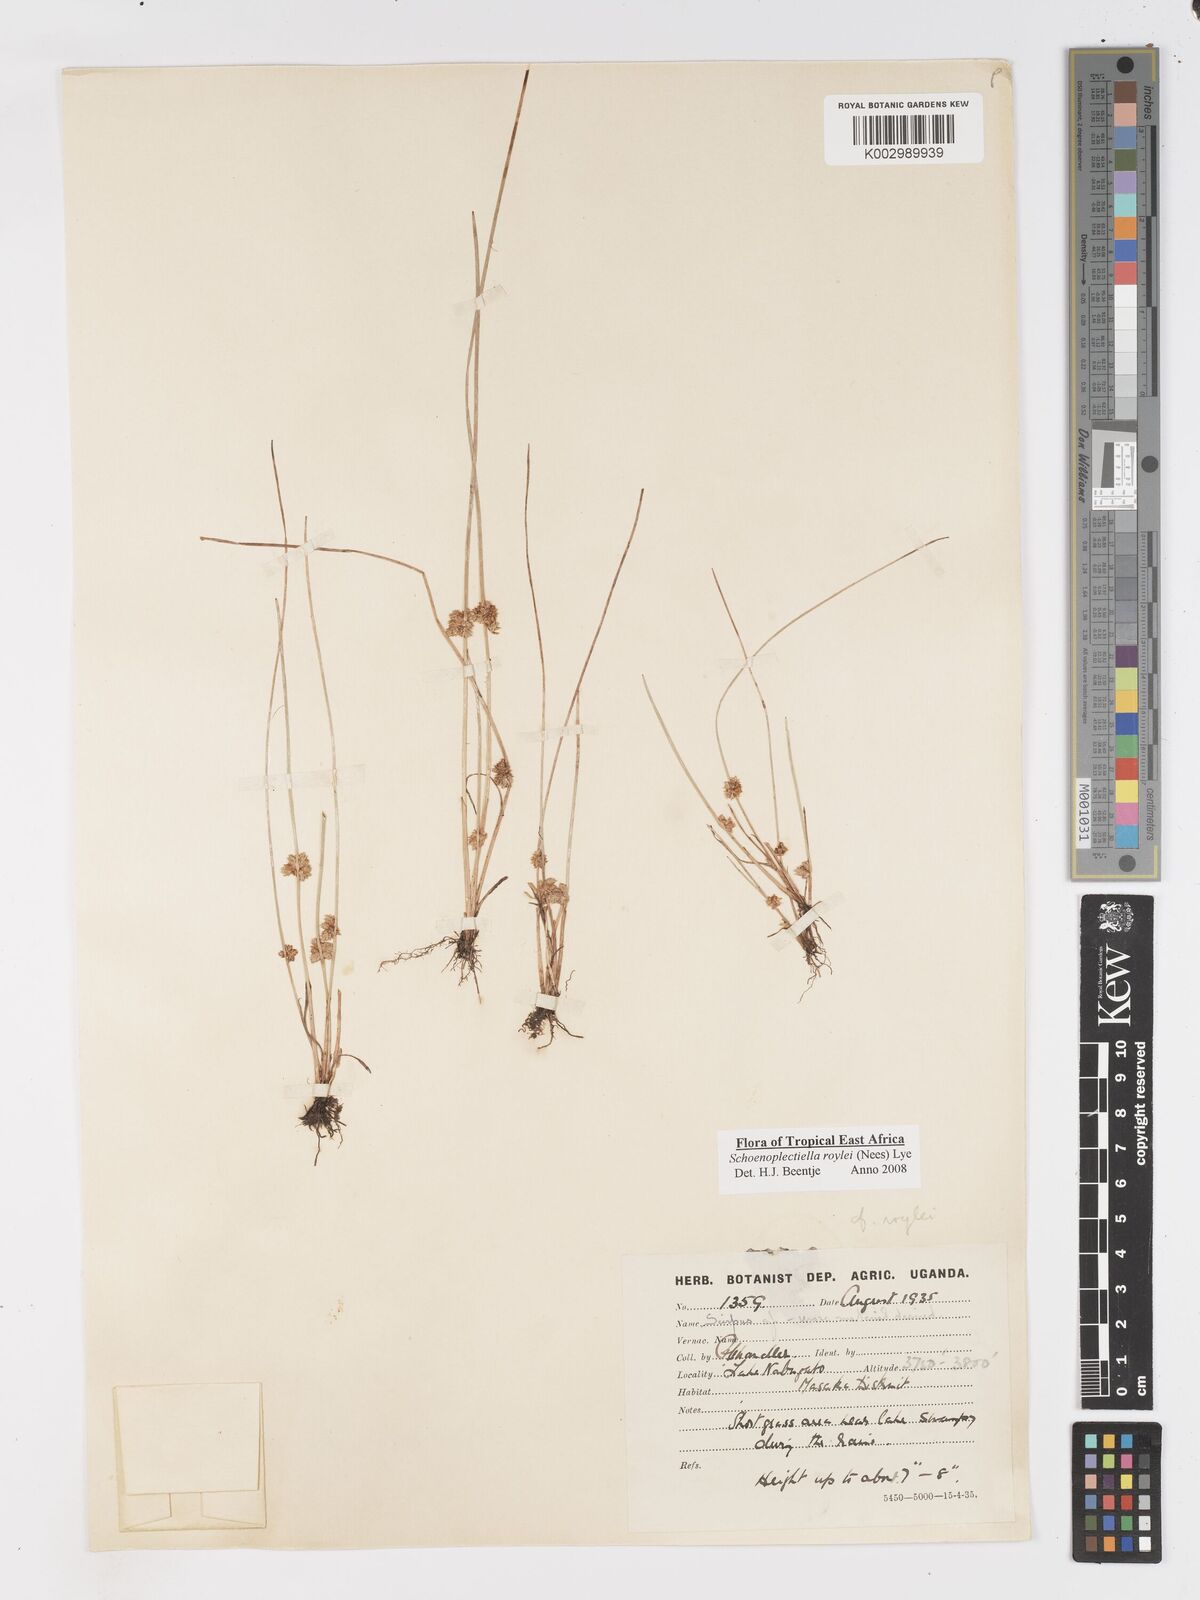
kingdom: Plantae
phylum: Tracheophyta
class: Liliopsida
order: Poales
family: Cyperaceae
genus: Schoenoplectiella
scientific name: Schoenoplectiella roylei
